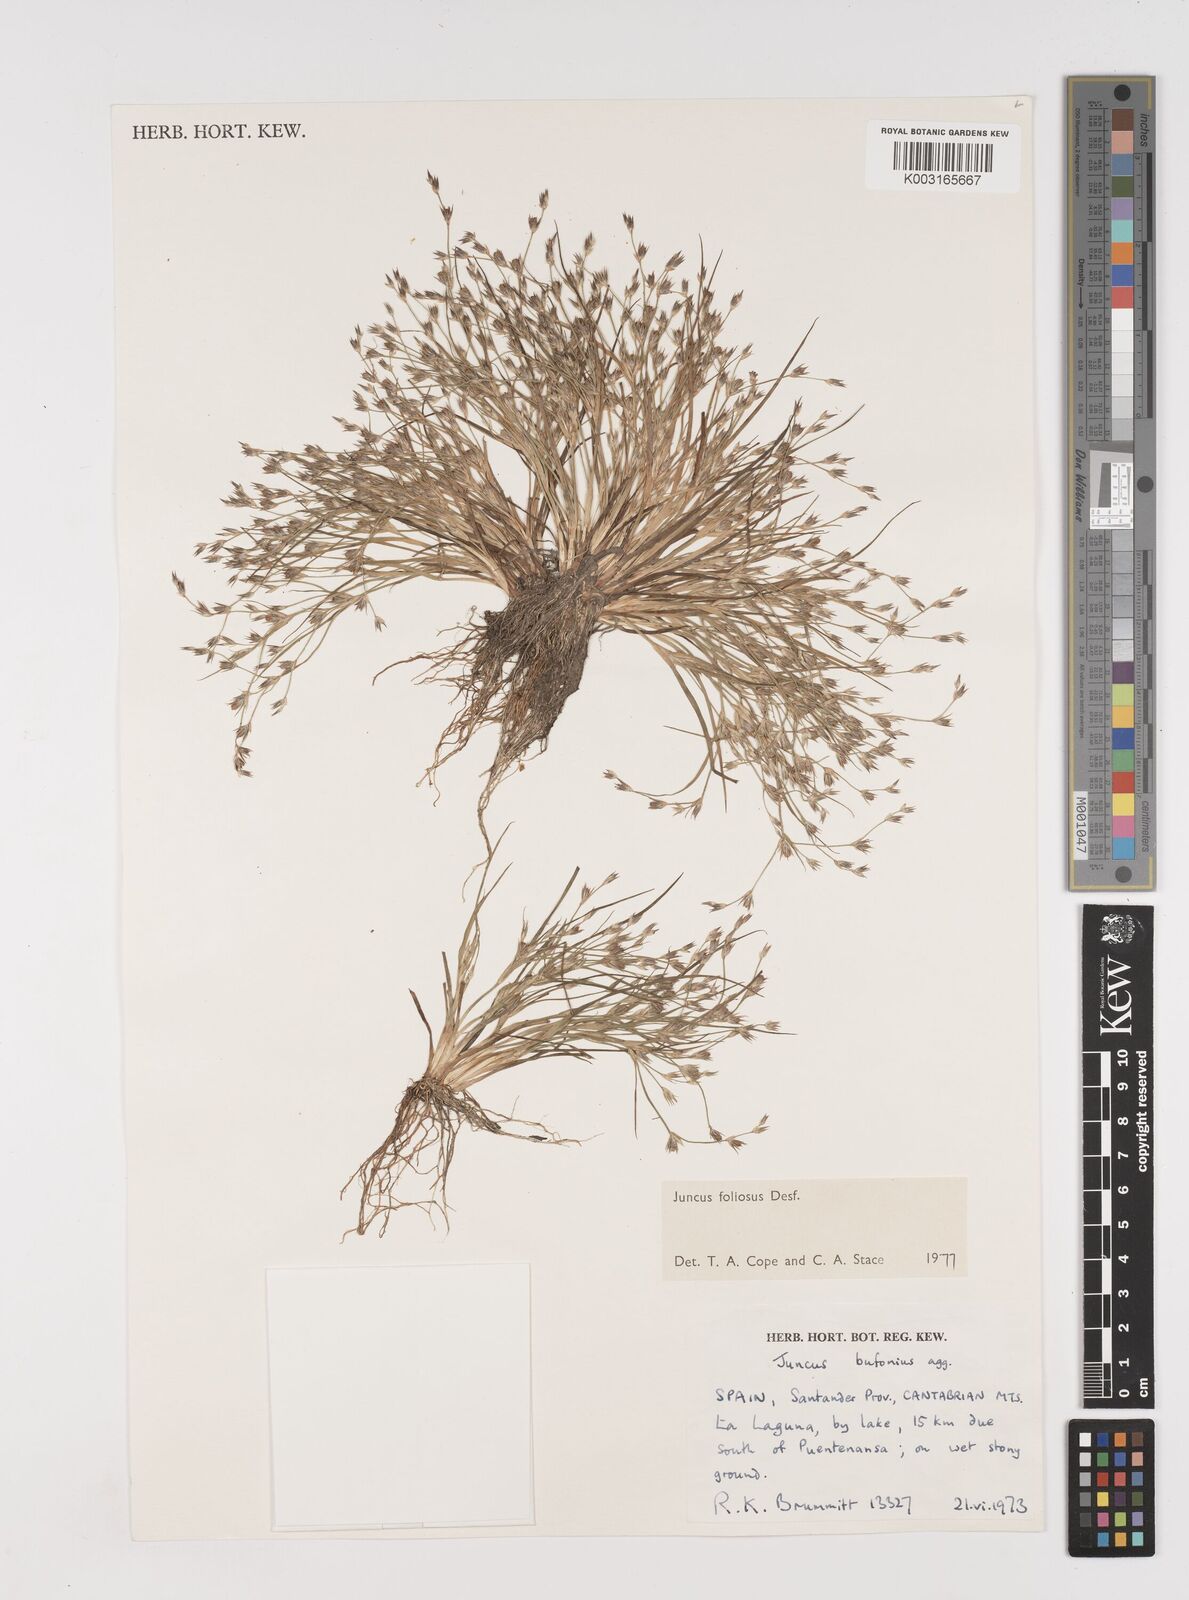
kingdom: Plantae
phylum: Tracheophyta
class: Liliopsida
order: Poales
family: Juncaceae
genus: Juncus
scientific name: Juncus foliosus
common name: Leafy rush
